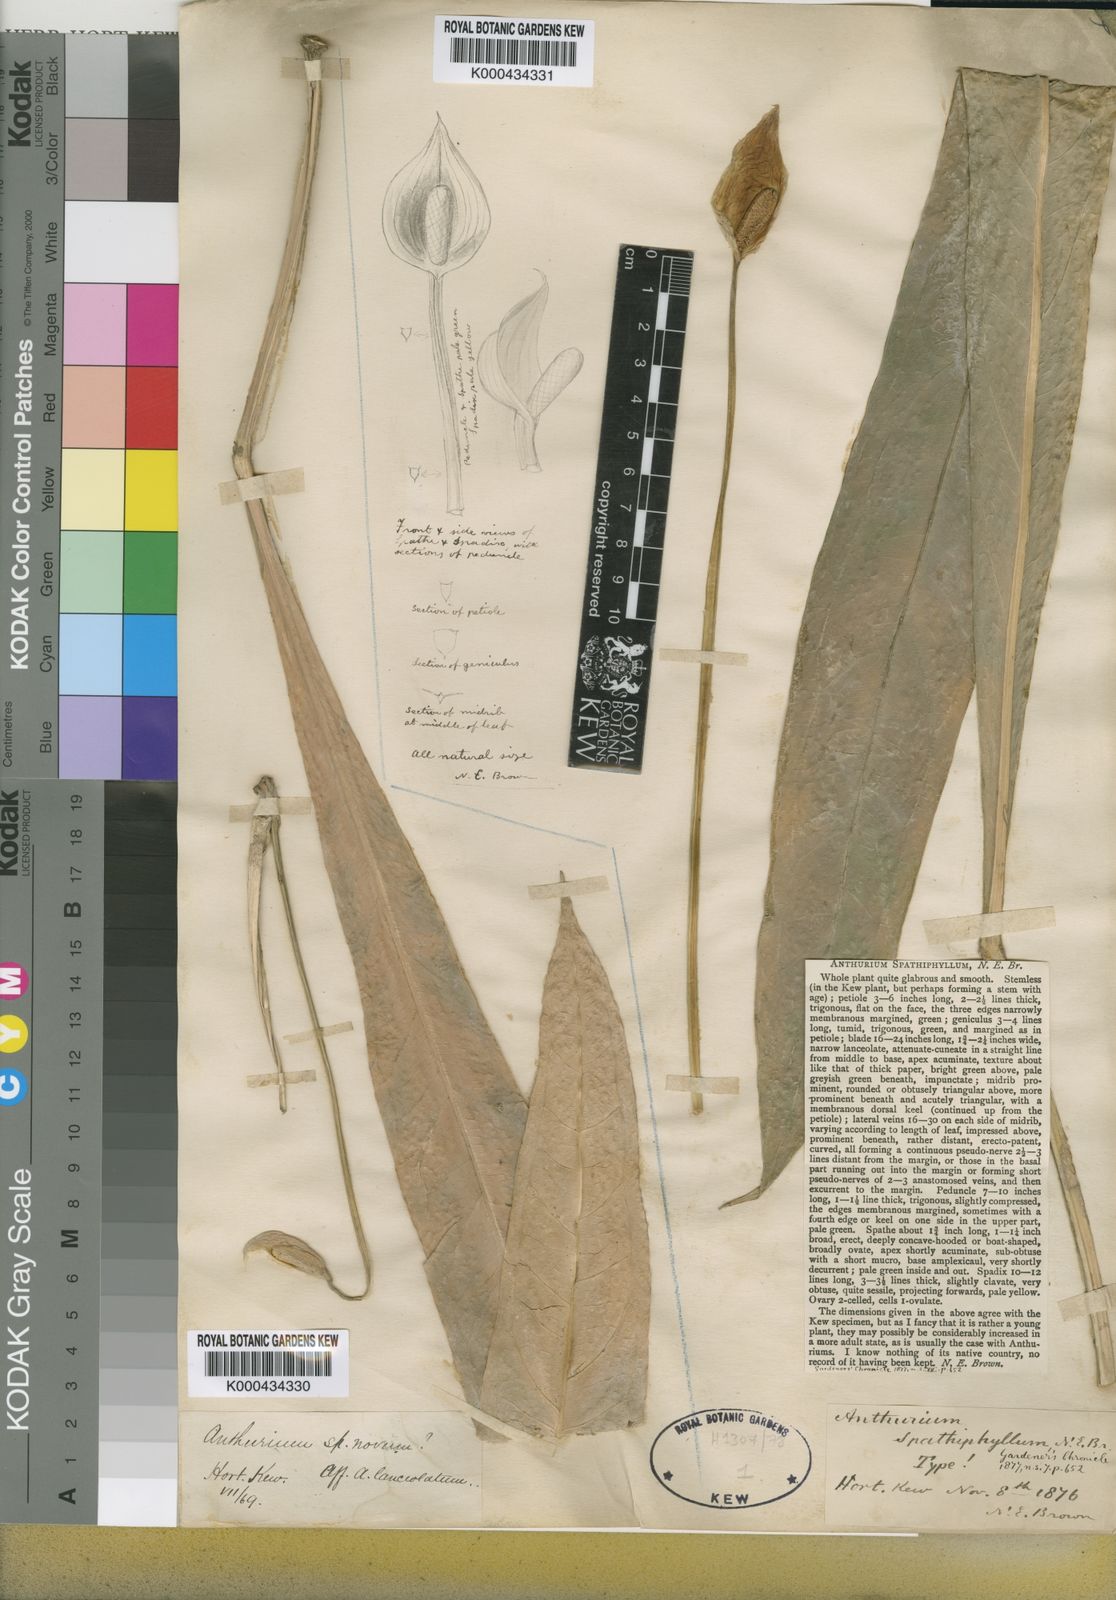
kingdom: Plantae
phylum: Tracheophyta
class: Liliopsida
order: Alismatales
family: Araceae
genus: Anthurium
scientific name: Anthurium spathiphyllum
